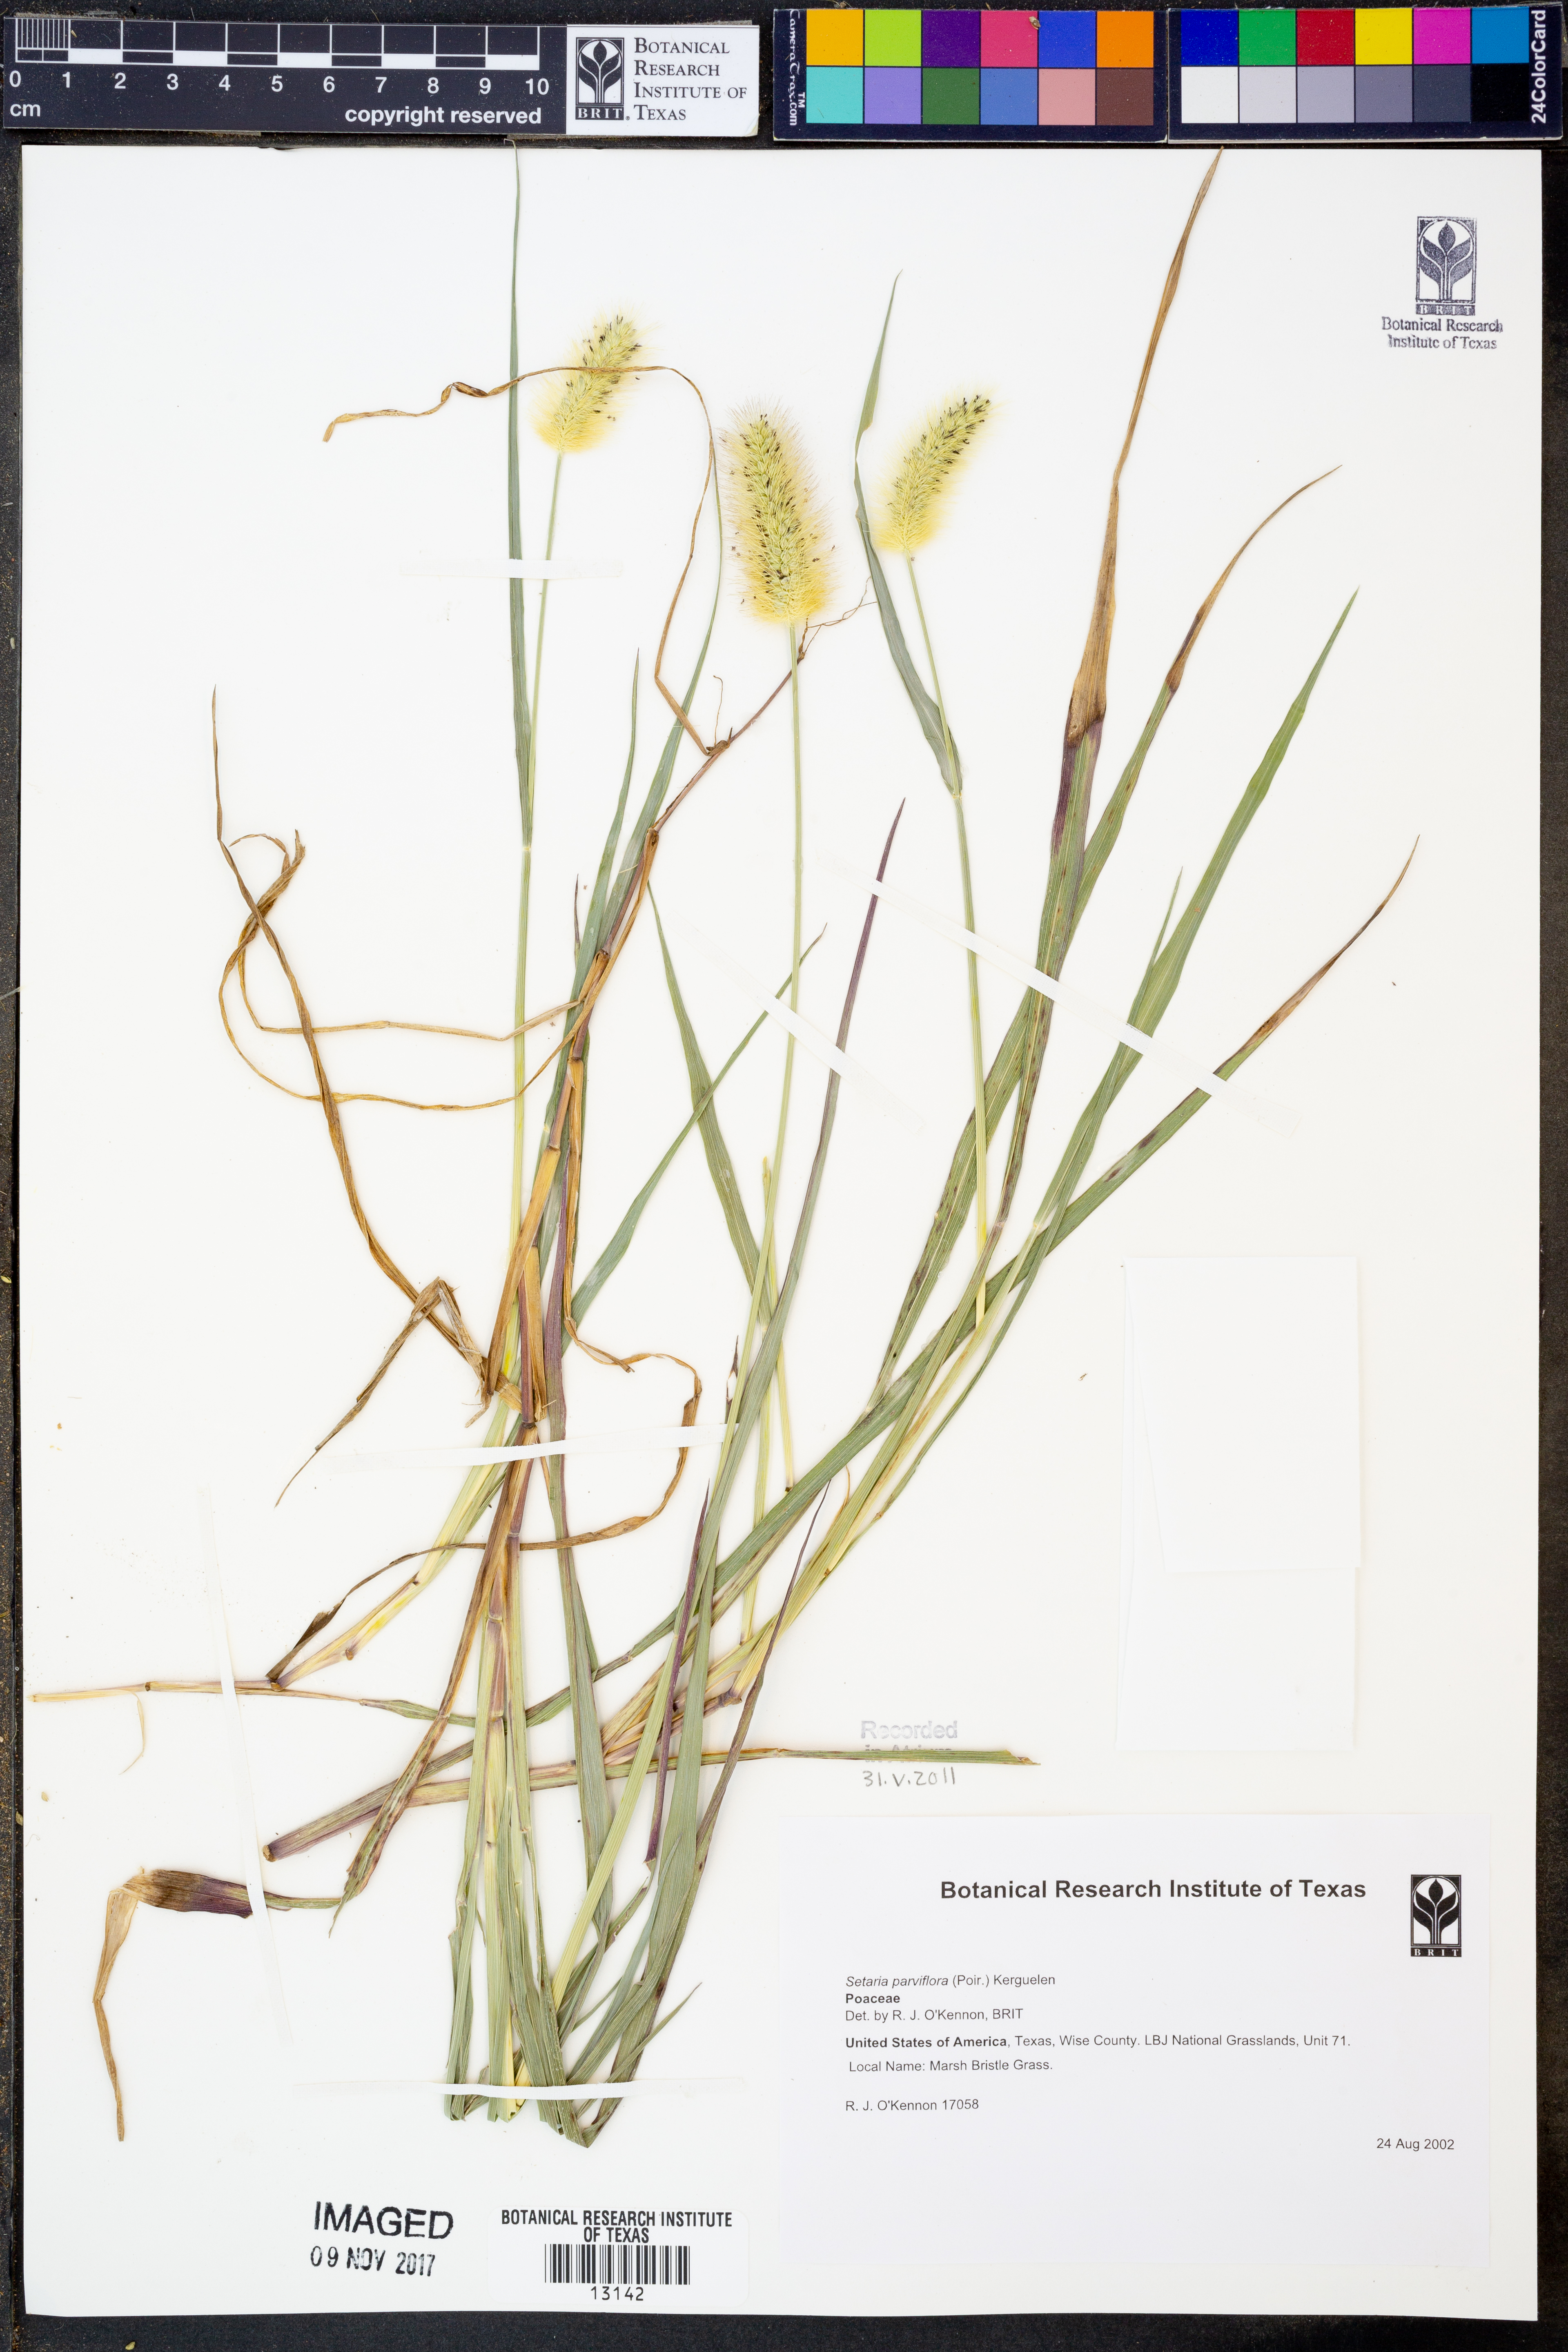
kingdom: Plantae
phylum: Tracheophyta
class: Liliopsida
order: Poales
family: Poaceae
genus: Setaria
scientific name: Setaria parviflora
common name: Knotroot bristle-grass
